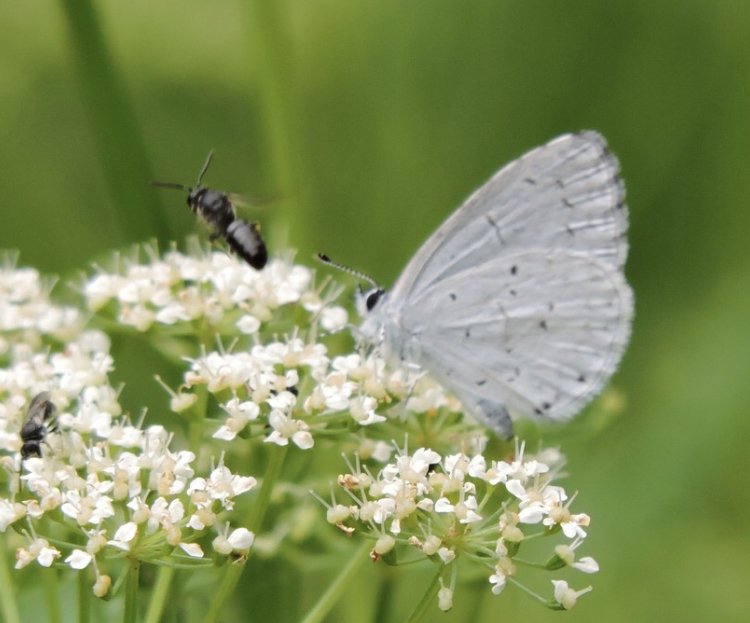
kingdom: Animalia
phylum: Arthropoda
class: Insecta
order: Lepidoptera
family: Lycaenidae
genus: Cyaniris
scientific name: Cyaniris neglecta
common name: Summer Azure
